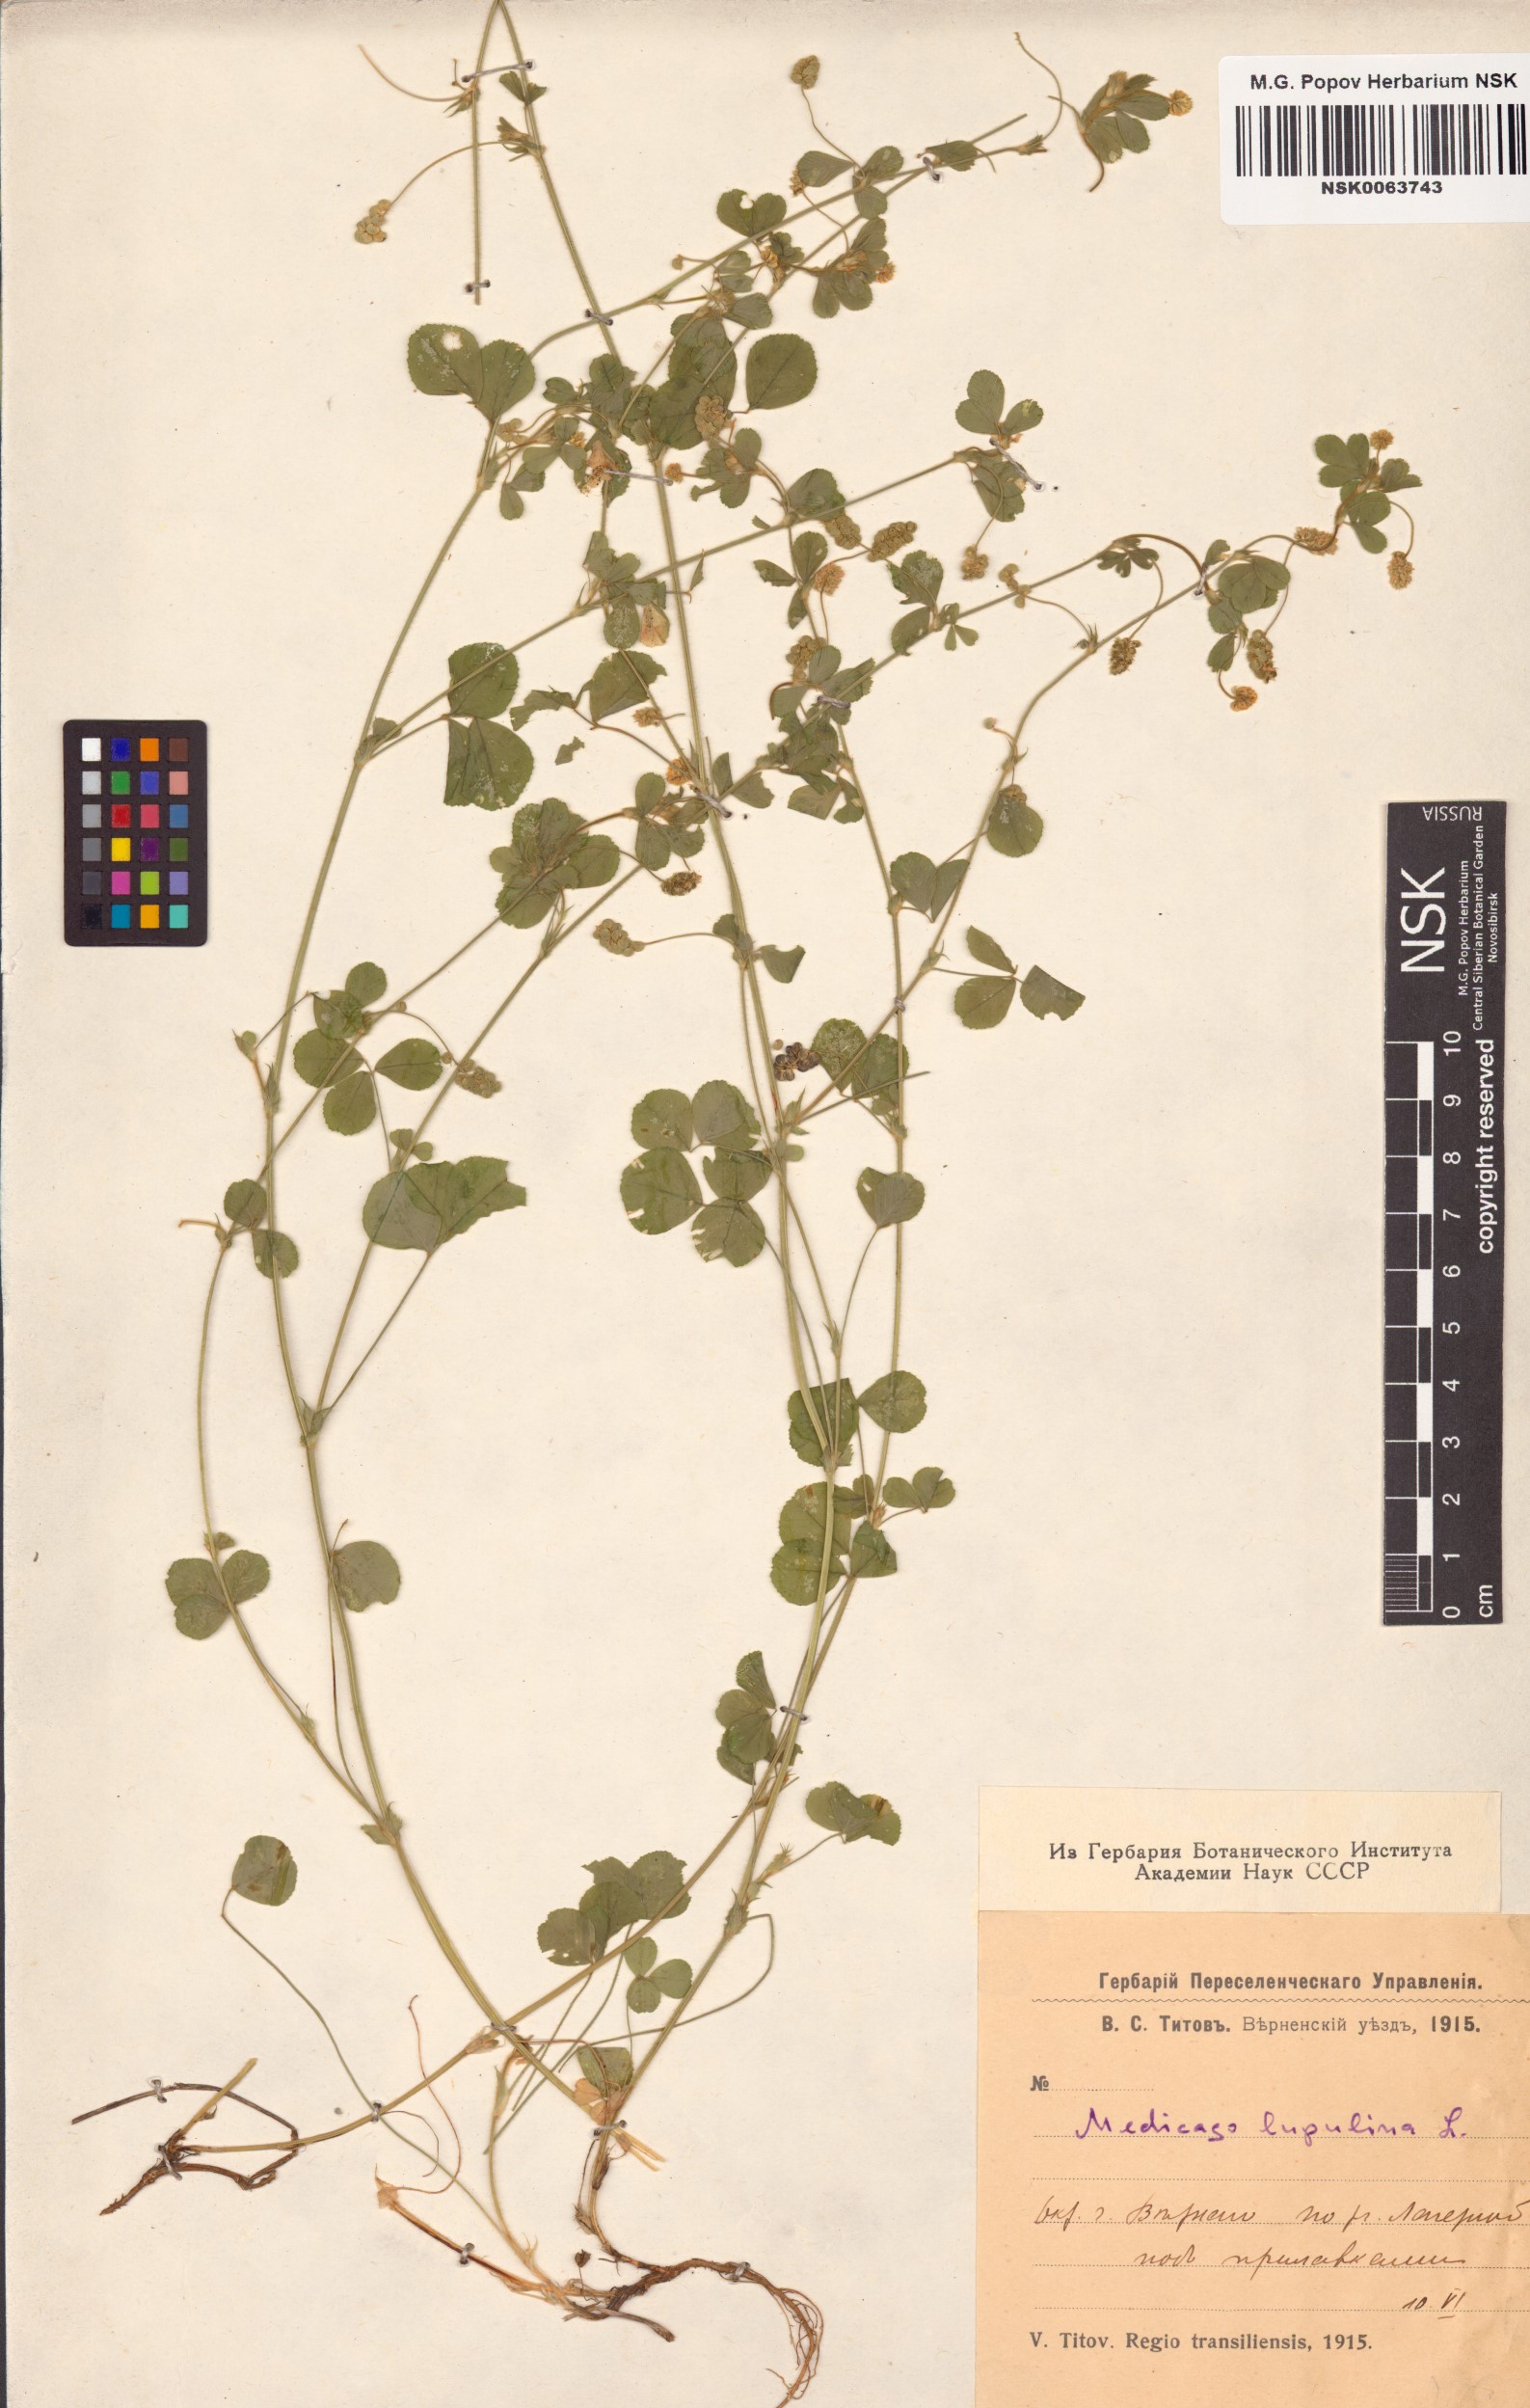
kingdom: Plantae
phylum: Tracheophyta
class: Magnoliopsida
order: Fabales
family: Fabaceae
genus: Medicago
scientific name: Medicago lupulina
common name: Black medick
